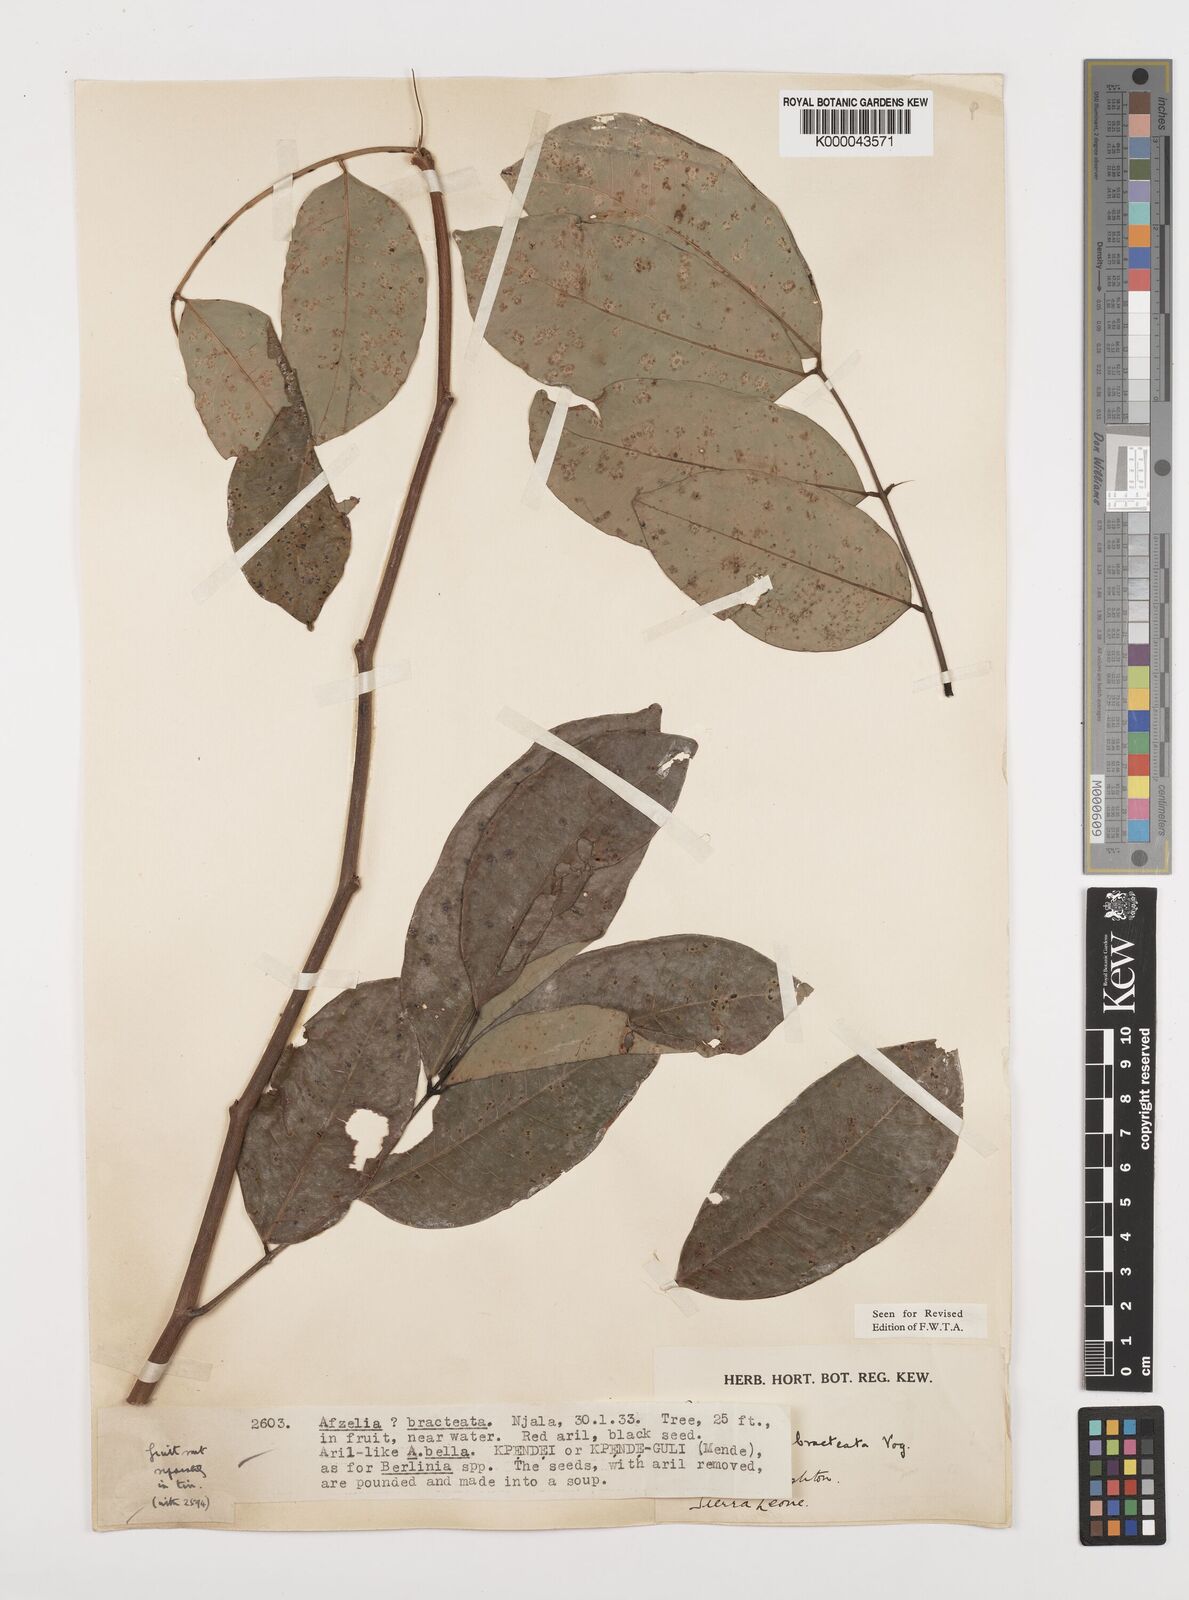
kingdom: Plantae
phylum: Tracheophyta
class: Magnoliopsida
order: Fabales
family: Fabaceae
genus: Afzelia
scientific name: Afzelia
